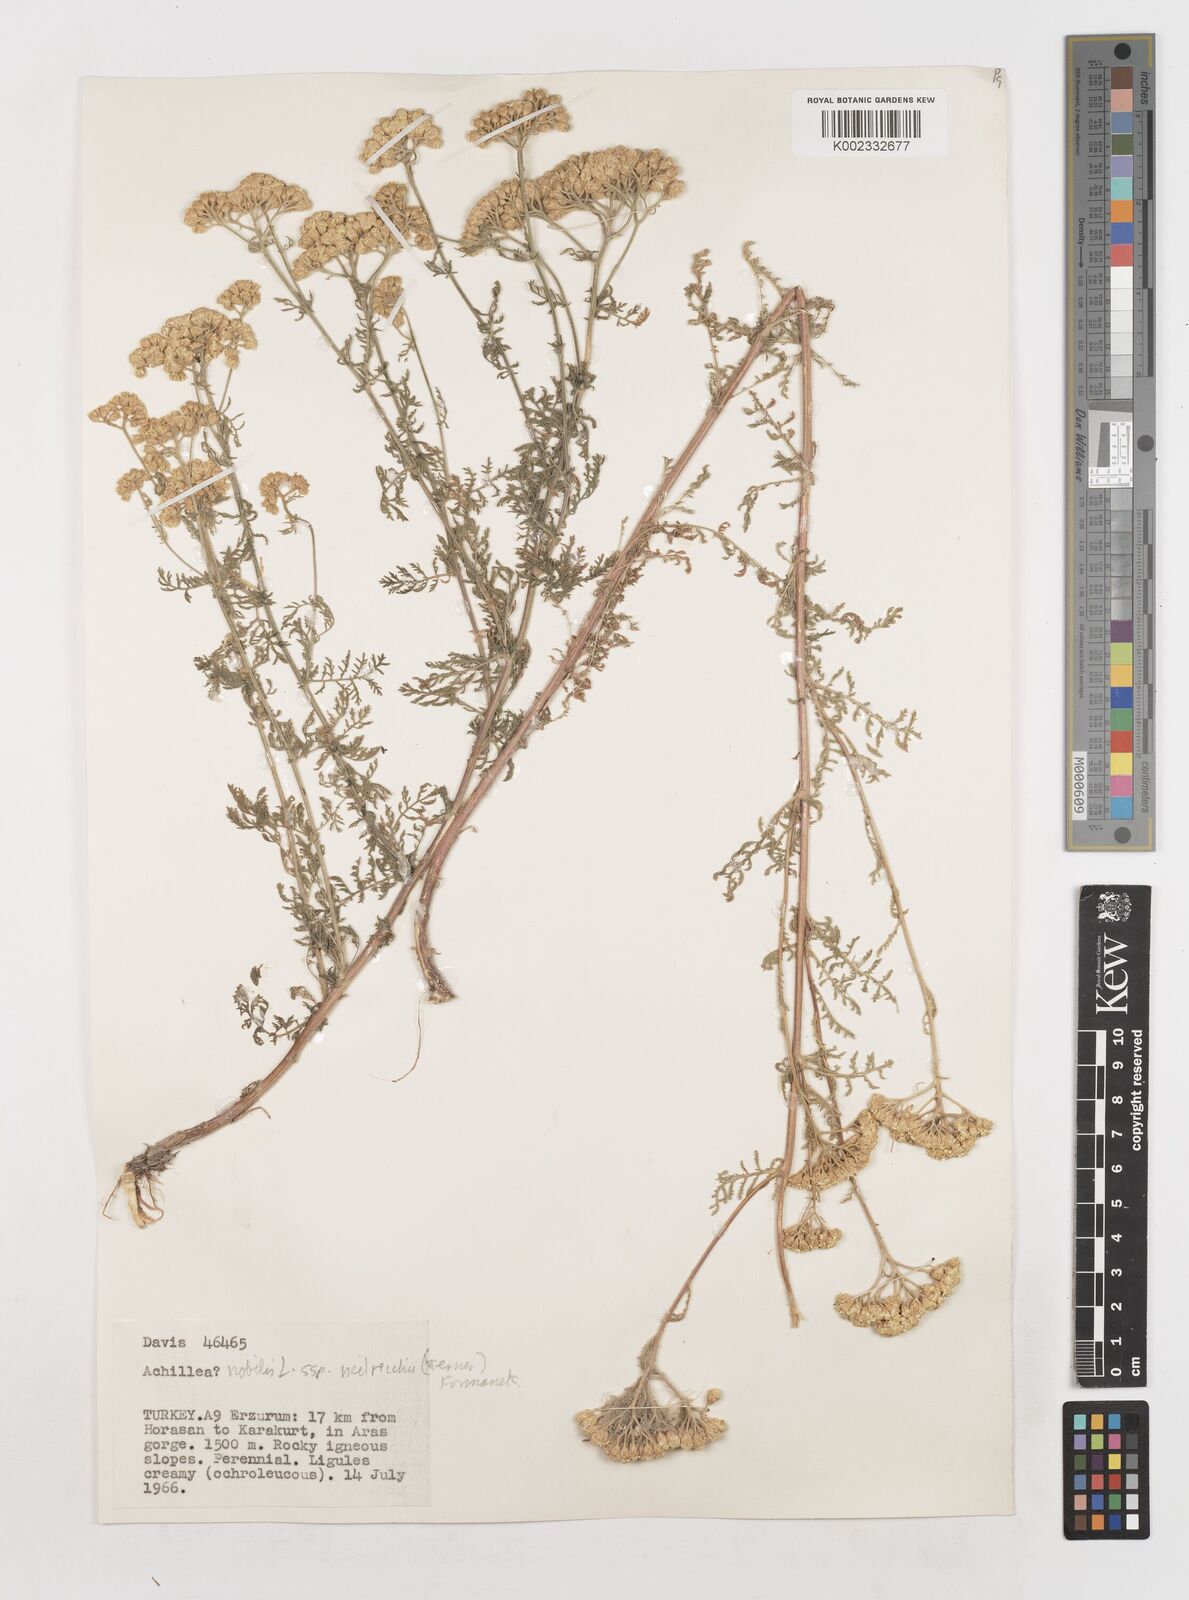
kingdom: Plantae
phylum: Tracheophyta
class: Magnoliopsida
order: Asterales
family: Asteraceae
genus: Achillea
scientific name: Achillea nobilis
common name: Noble yarrow
